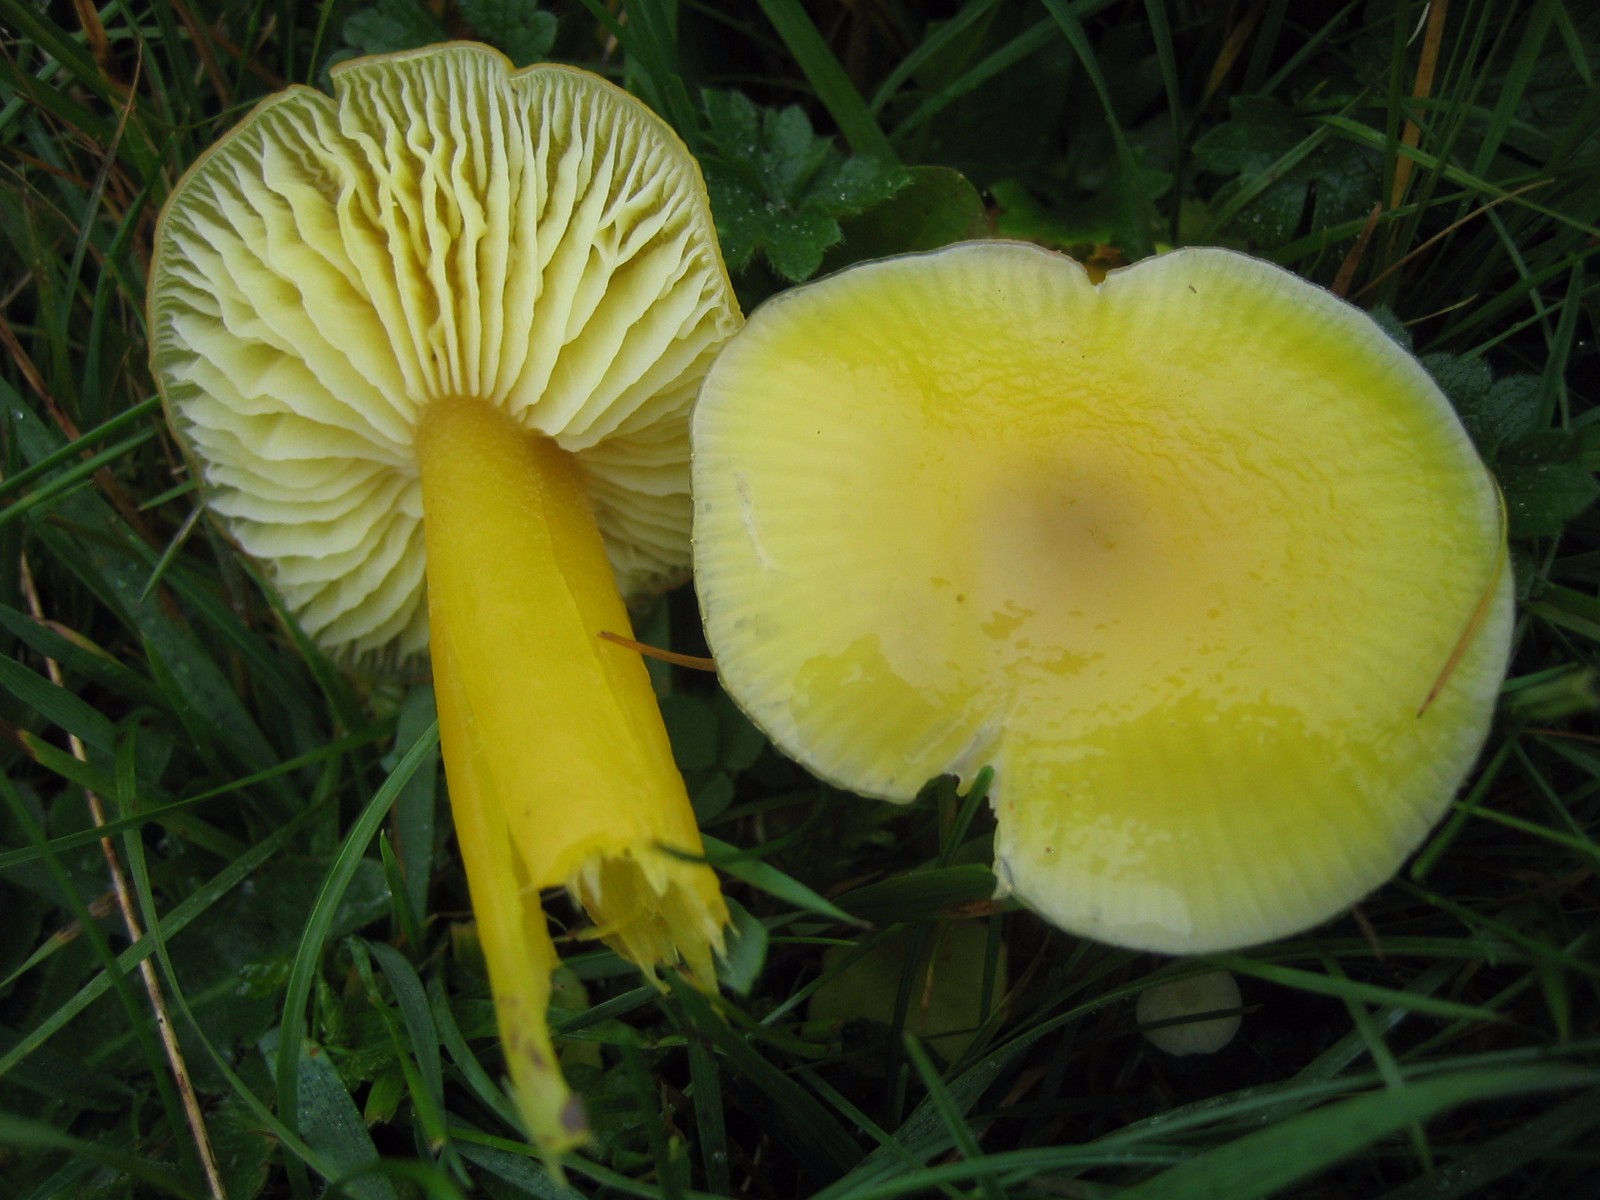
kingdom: Fungi
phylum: Basidiomycota
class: Agaricomycetes
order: Agaricales
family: Hygrophoraceae
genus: Hygrocybe
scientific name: Hygrocybe chlorophana
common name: gul vokshat
